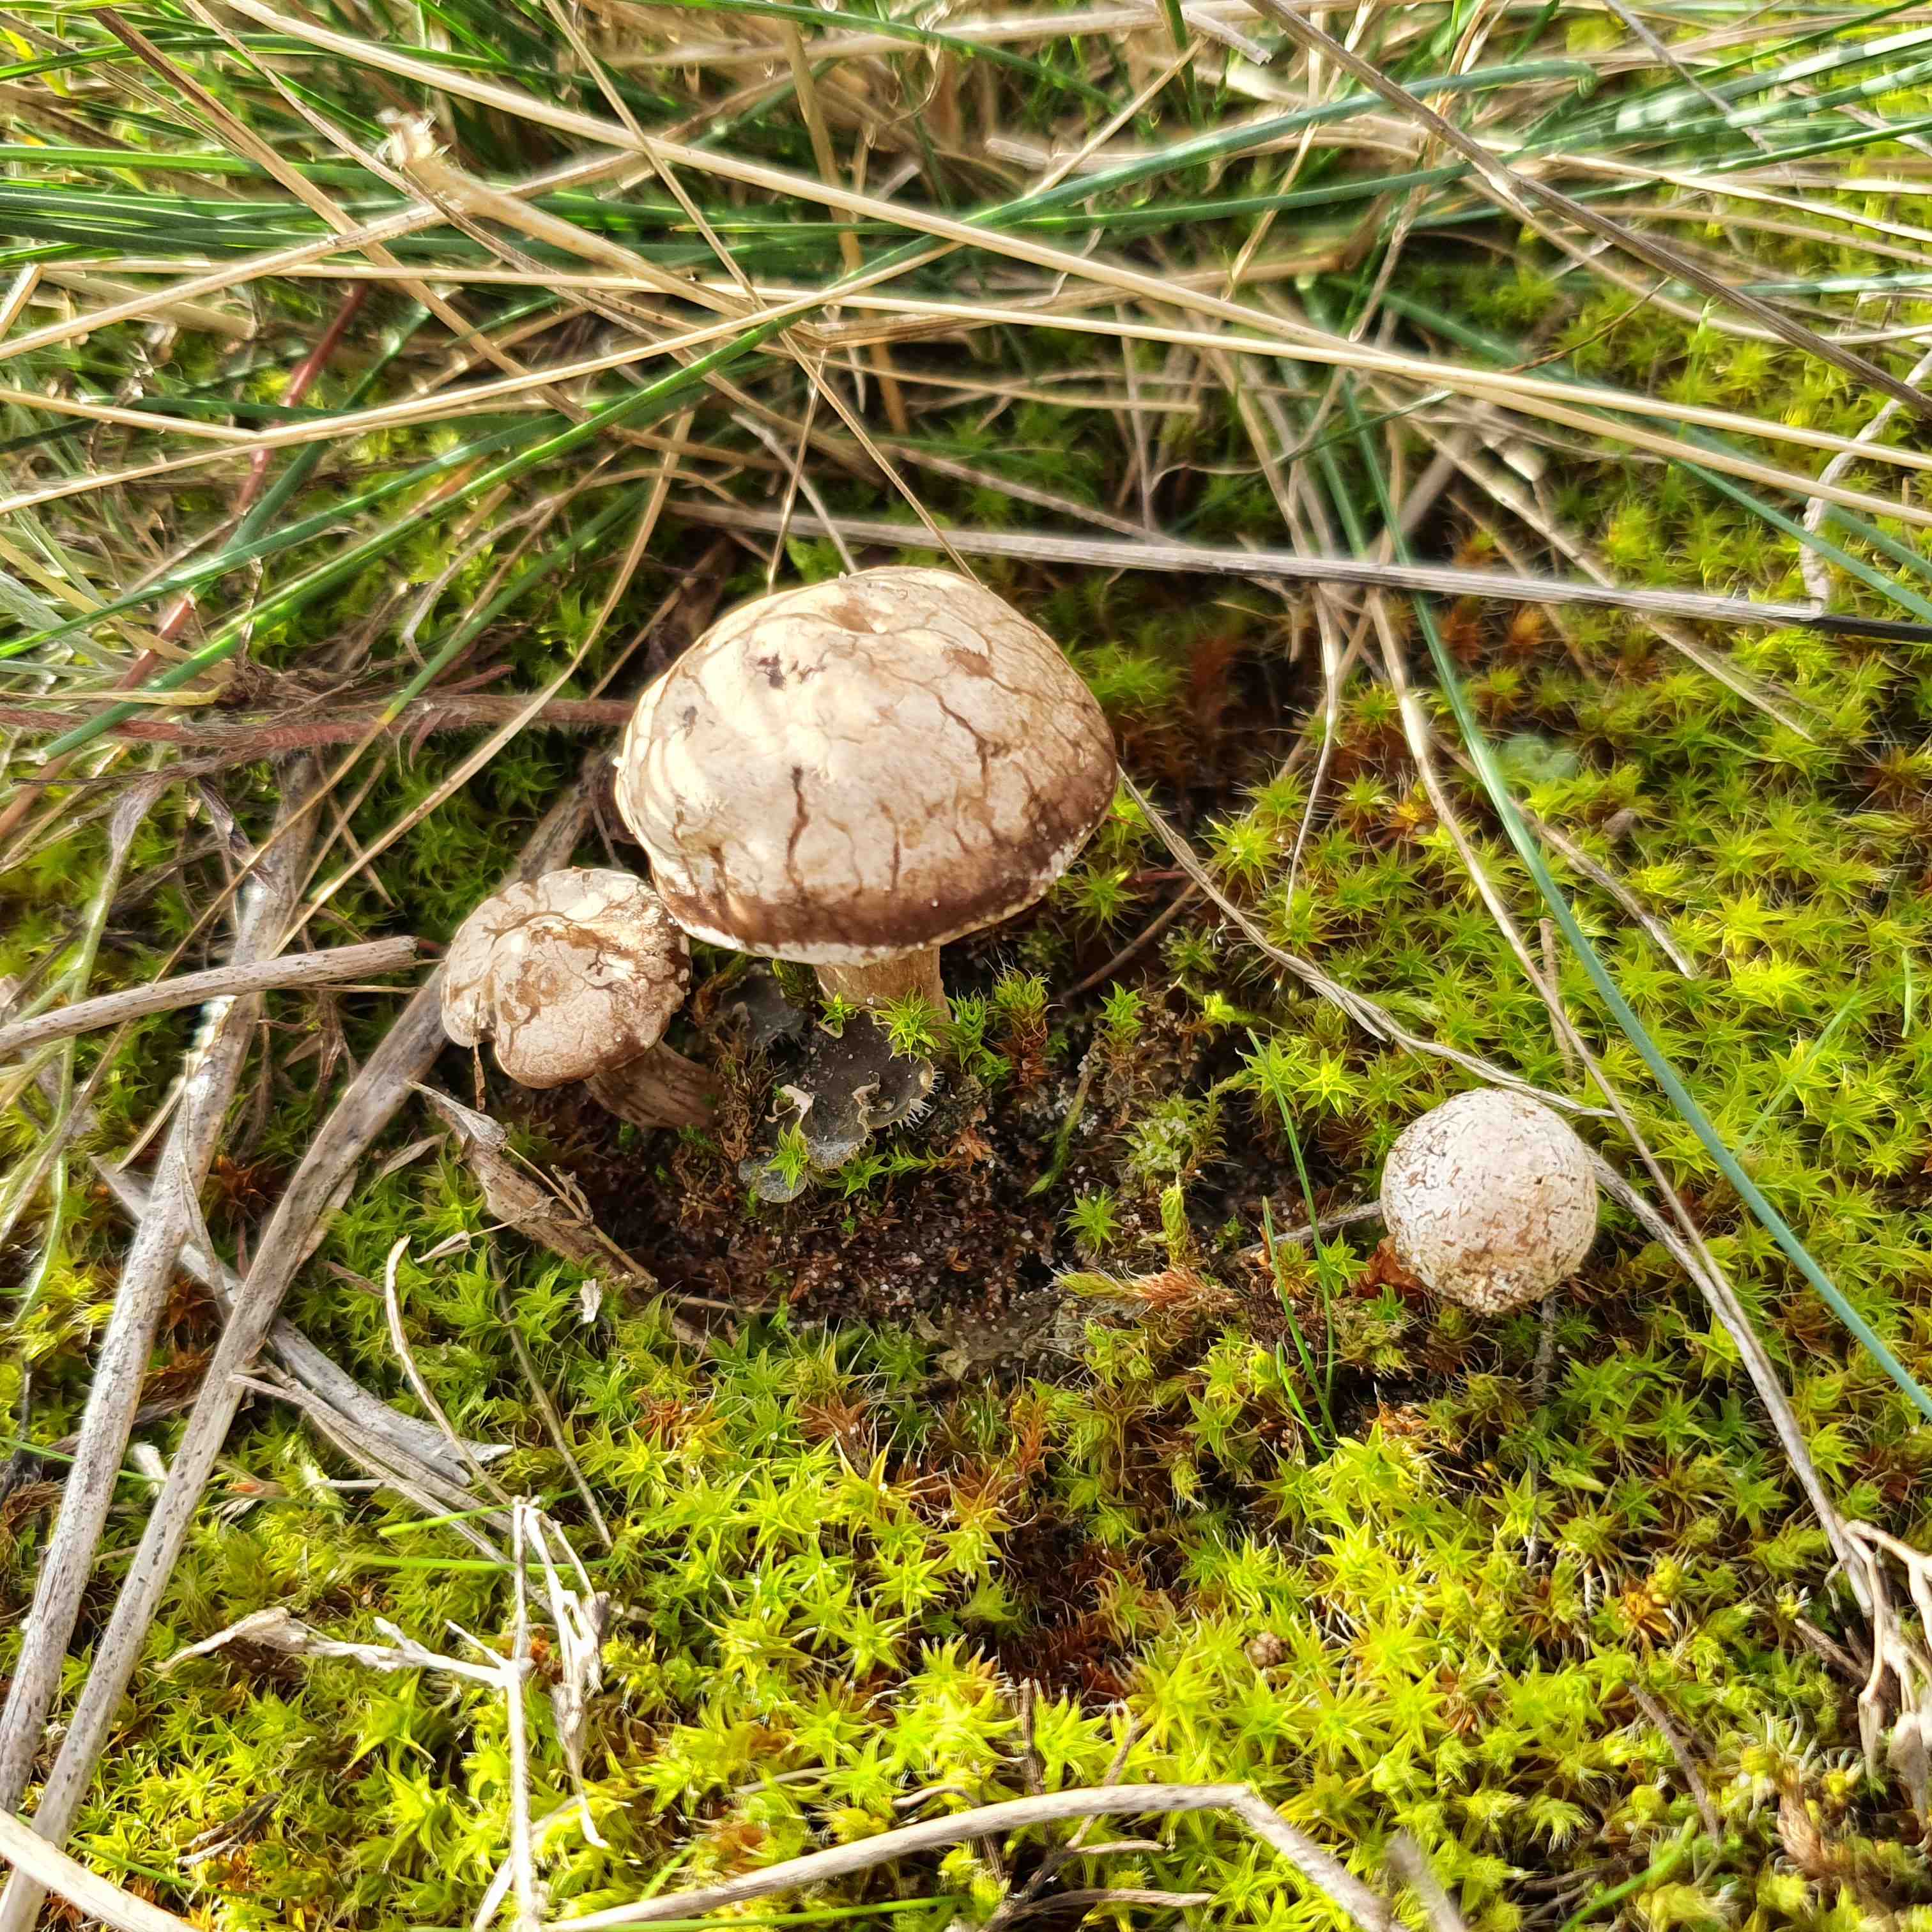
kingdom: Fungi
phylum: Basidiomycota
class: Agaricomycetes
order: Agaricales
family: Tricholomataceae
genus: Lulesia
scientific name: Lulesia
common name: sortnende troldhat
